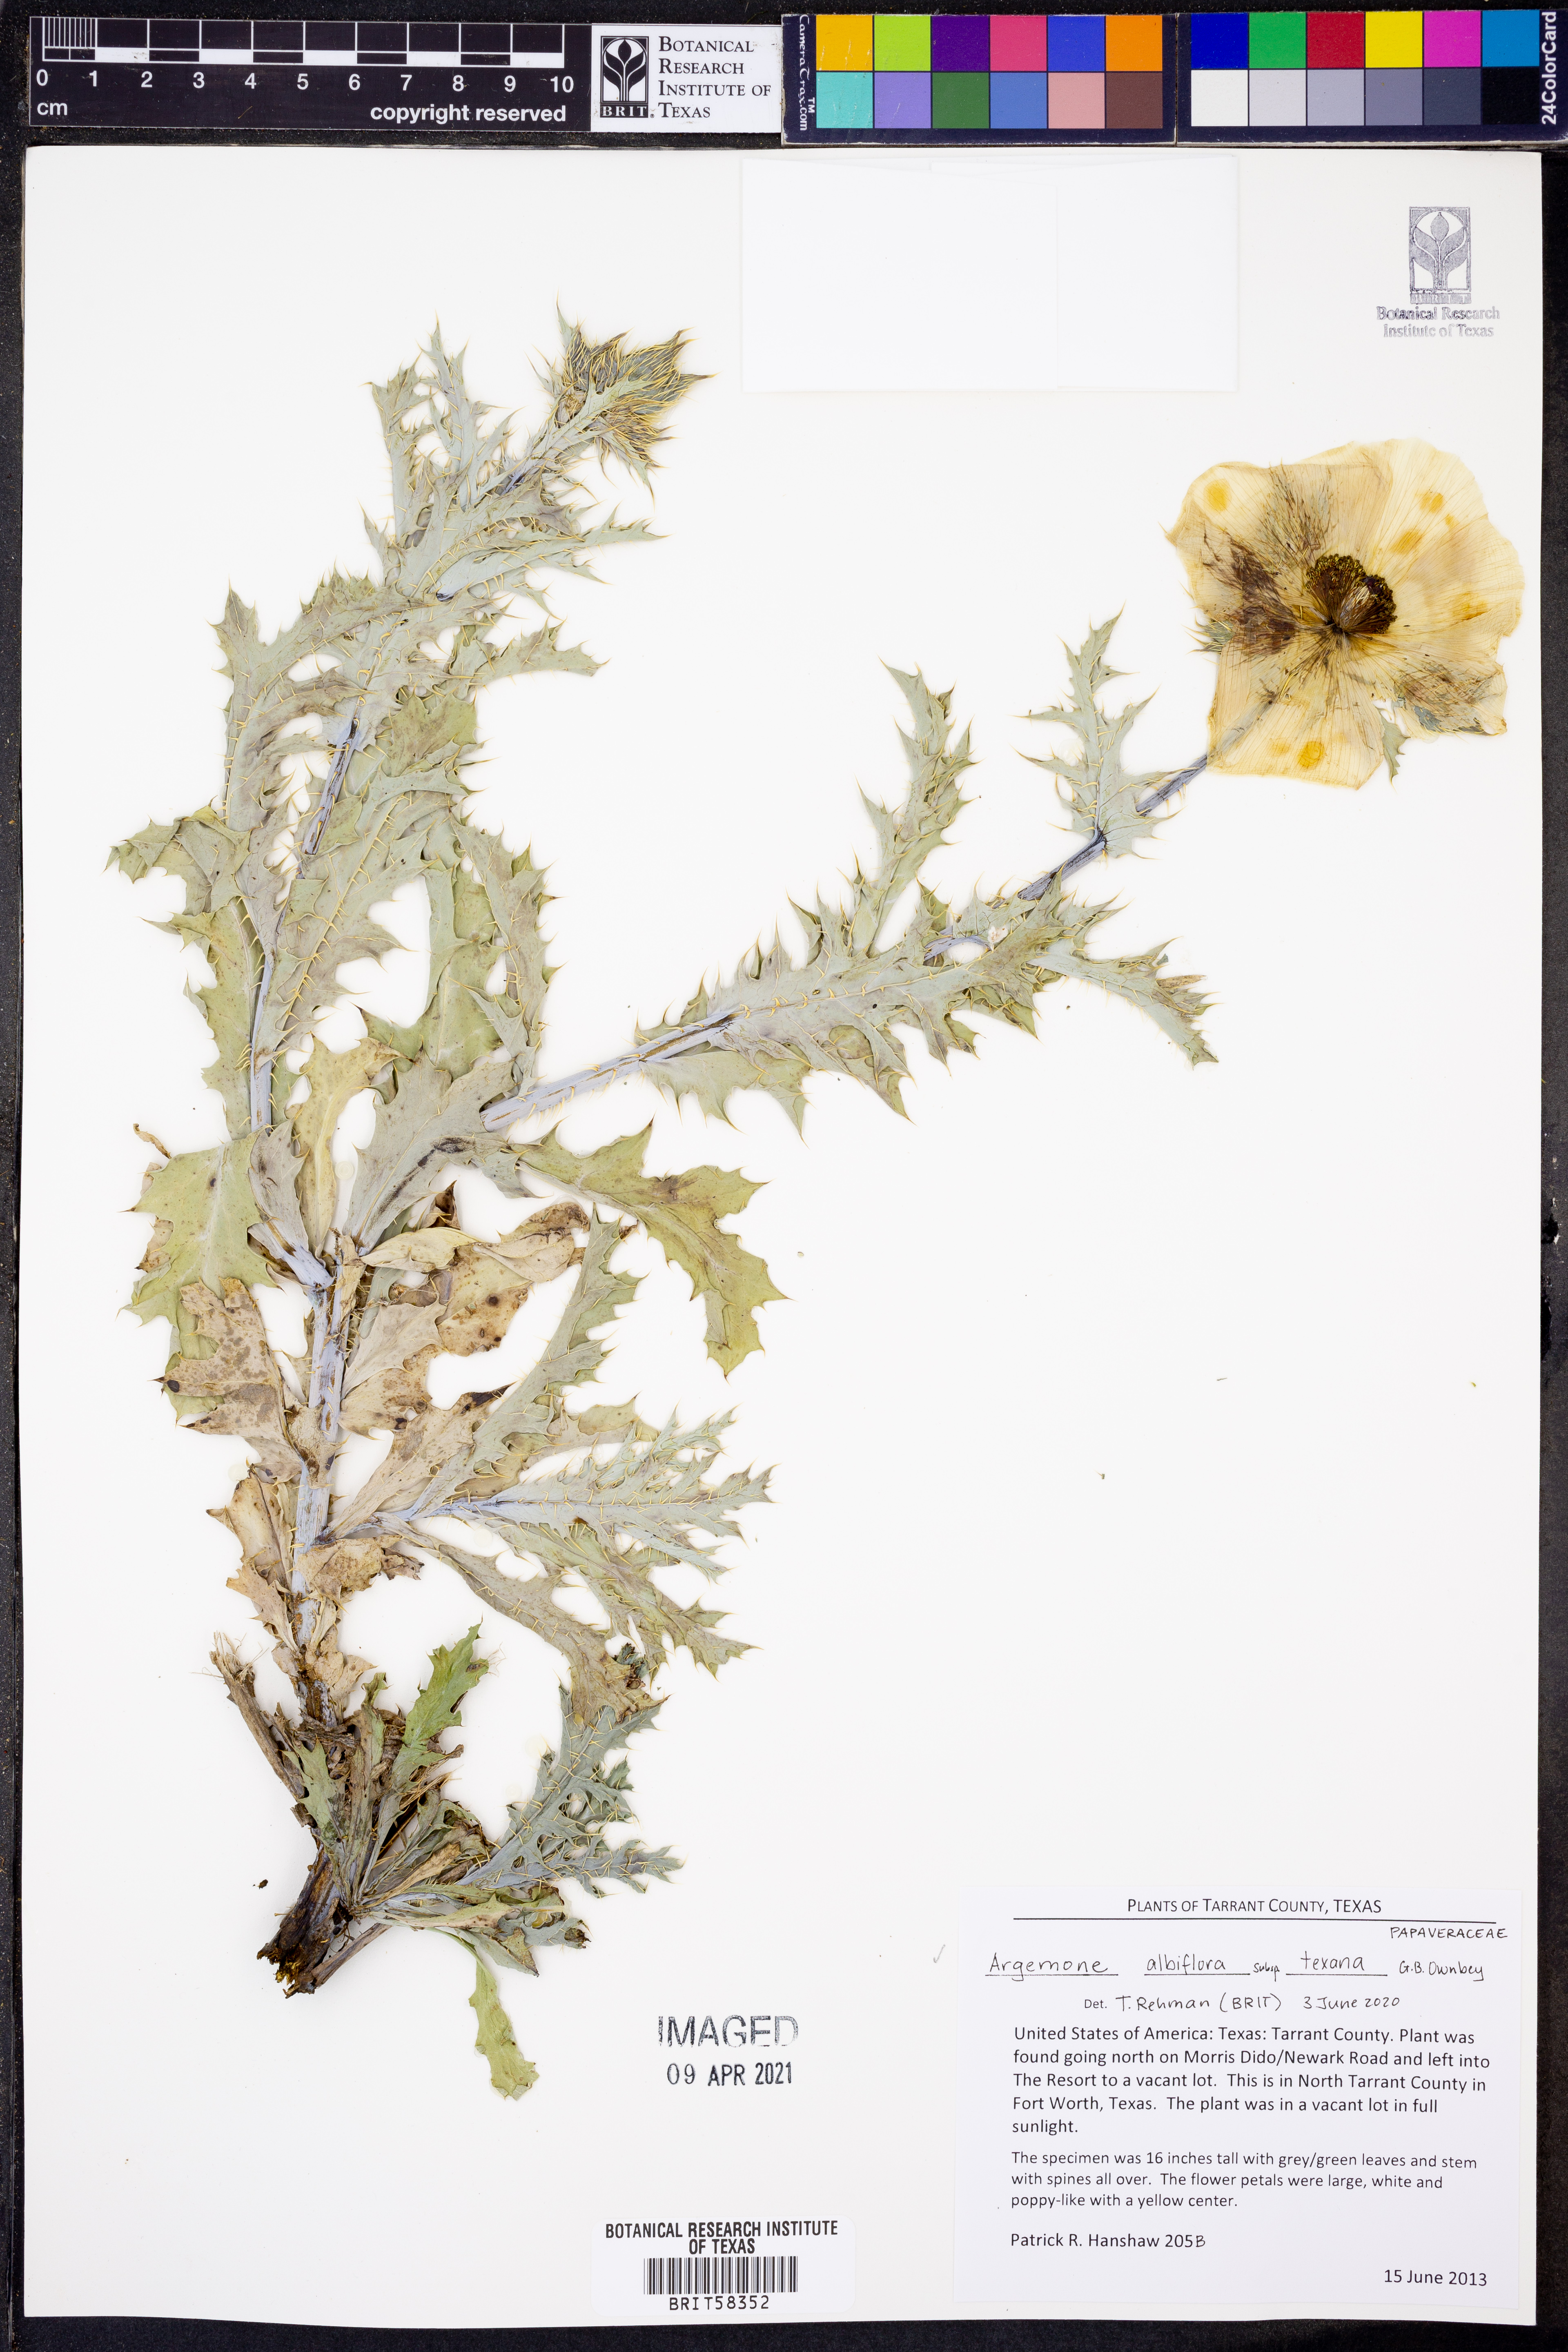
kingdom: Plantae
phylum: Tracheophyta
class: Magnoliopsida
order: Ranunculales
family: Papaveraceae
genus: Argemone
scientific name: Argemone albiflora
